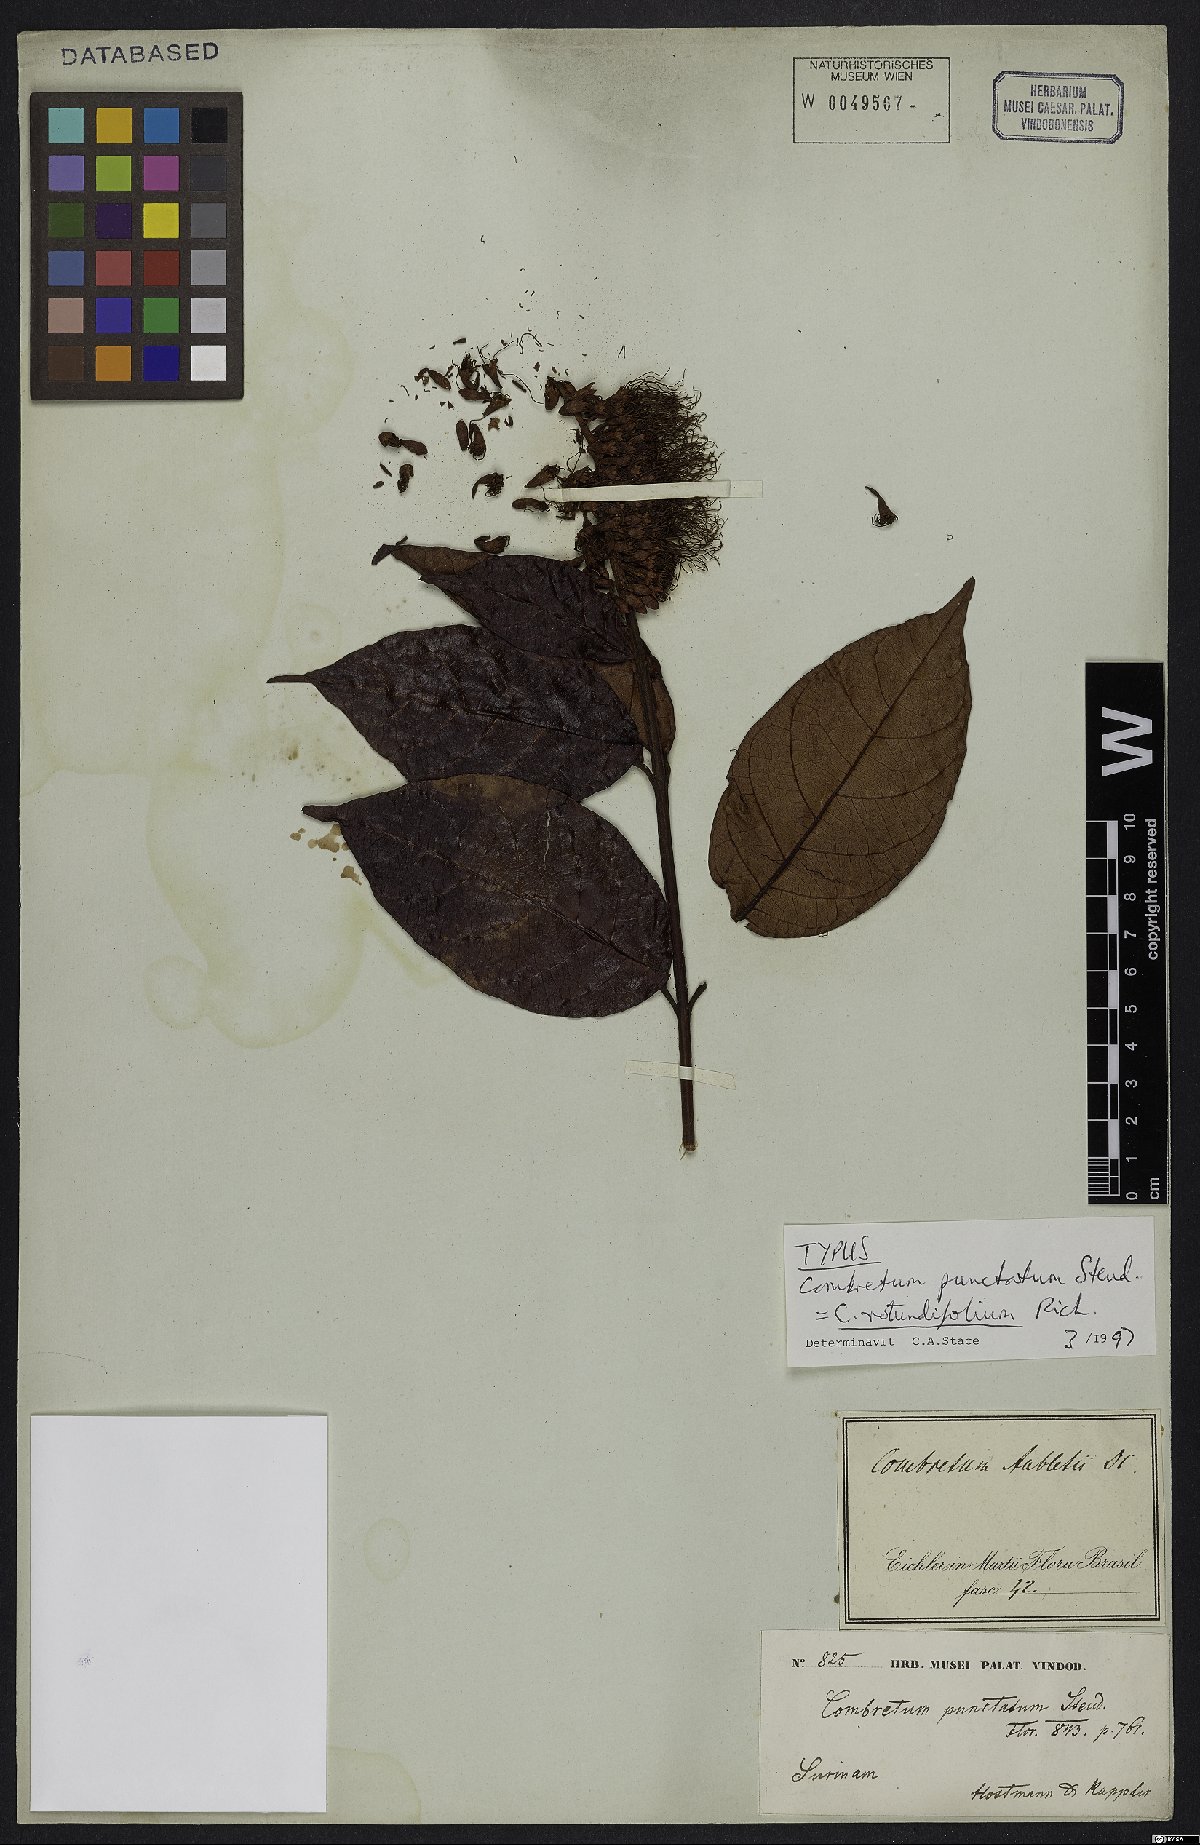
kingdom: Plantae
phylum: Tracheophyta
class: Magnoliopsida
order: Myrtales
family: Combretaceae
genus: Combretum
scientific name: Combretum rotundifolium
